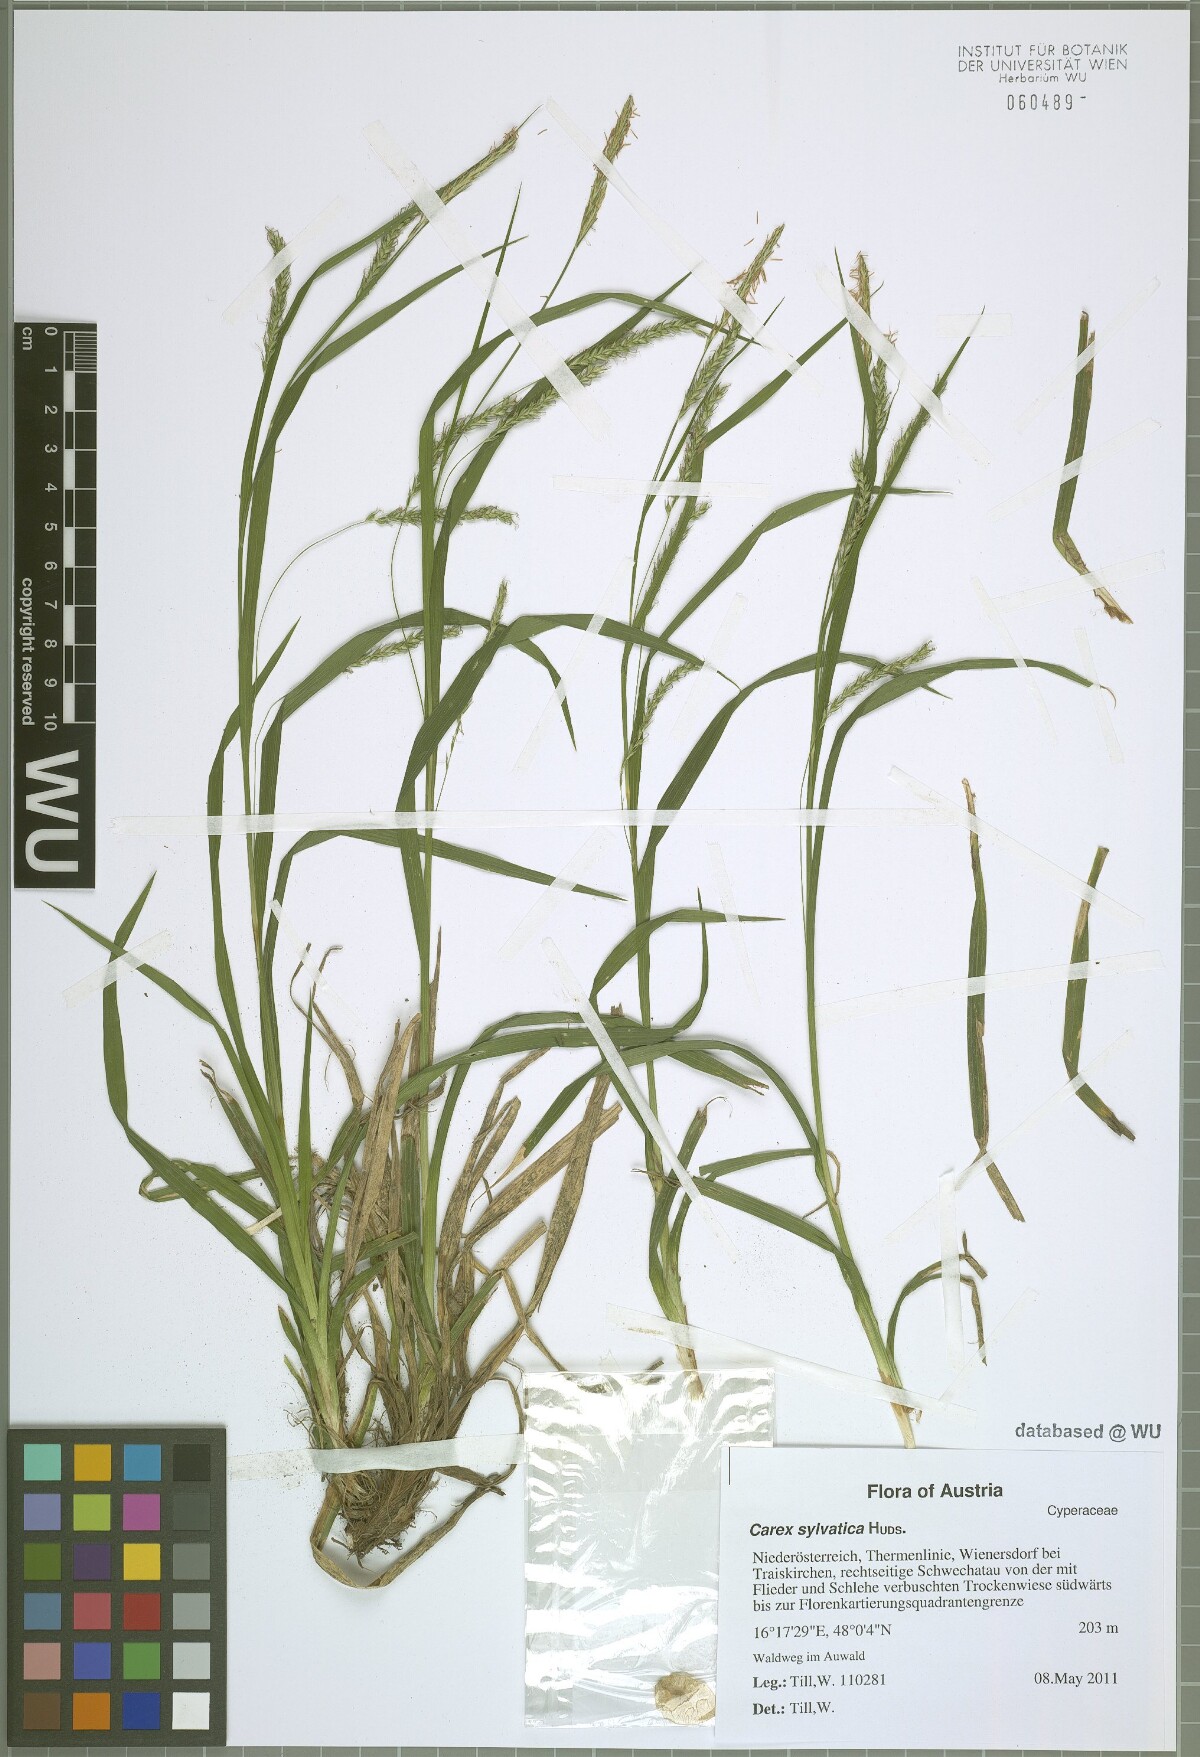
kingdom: Plantae
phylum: Tracheophyta
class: Liliopsida
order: Poales
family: Cyperaceae
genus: Carex
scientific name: Carex sylvatica
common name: Wood-sedge
